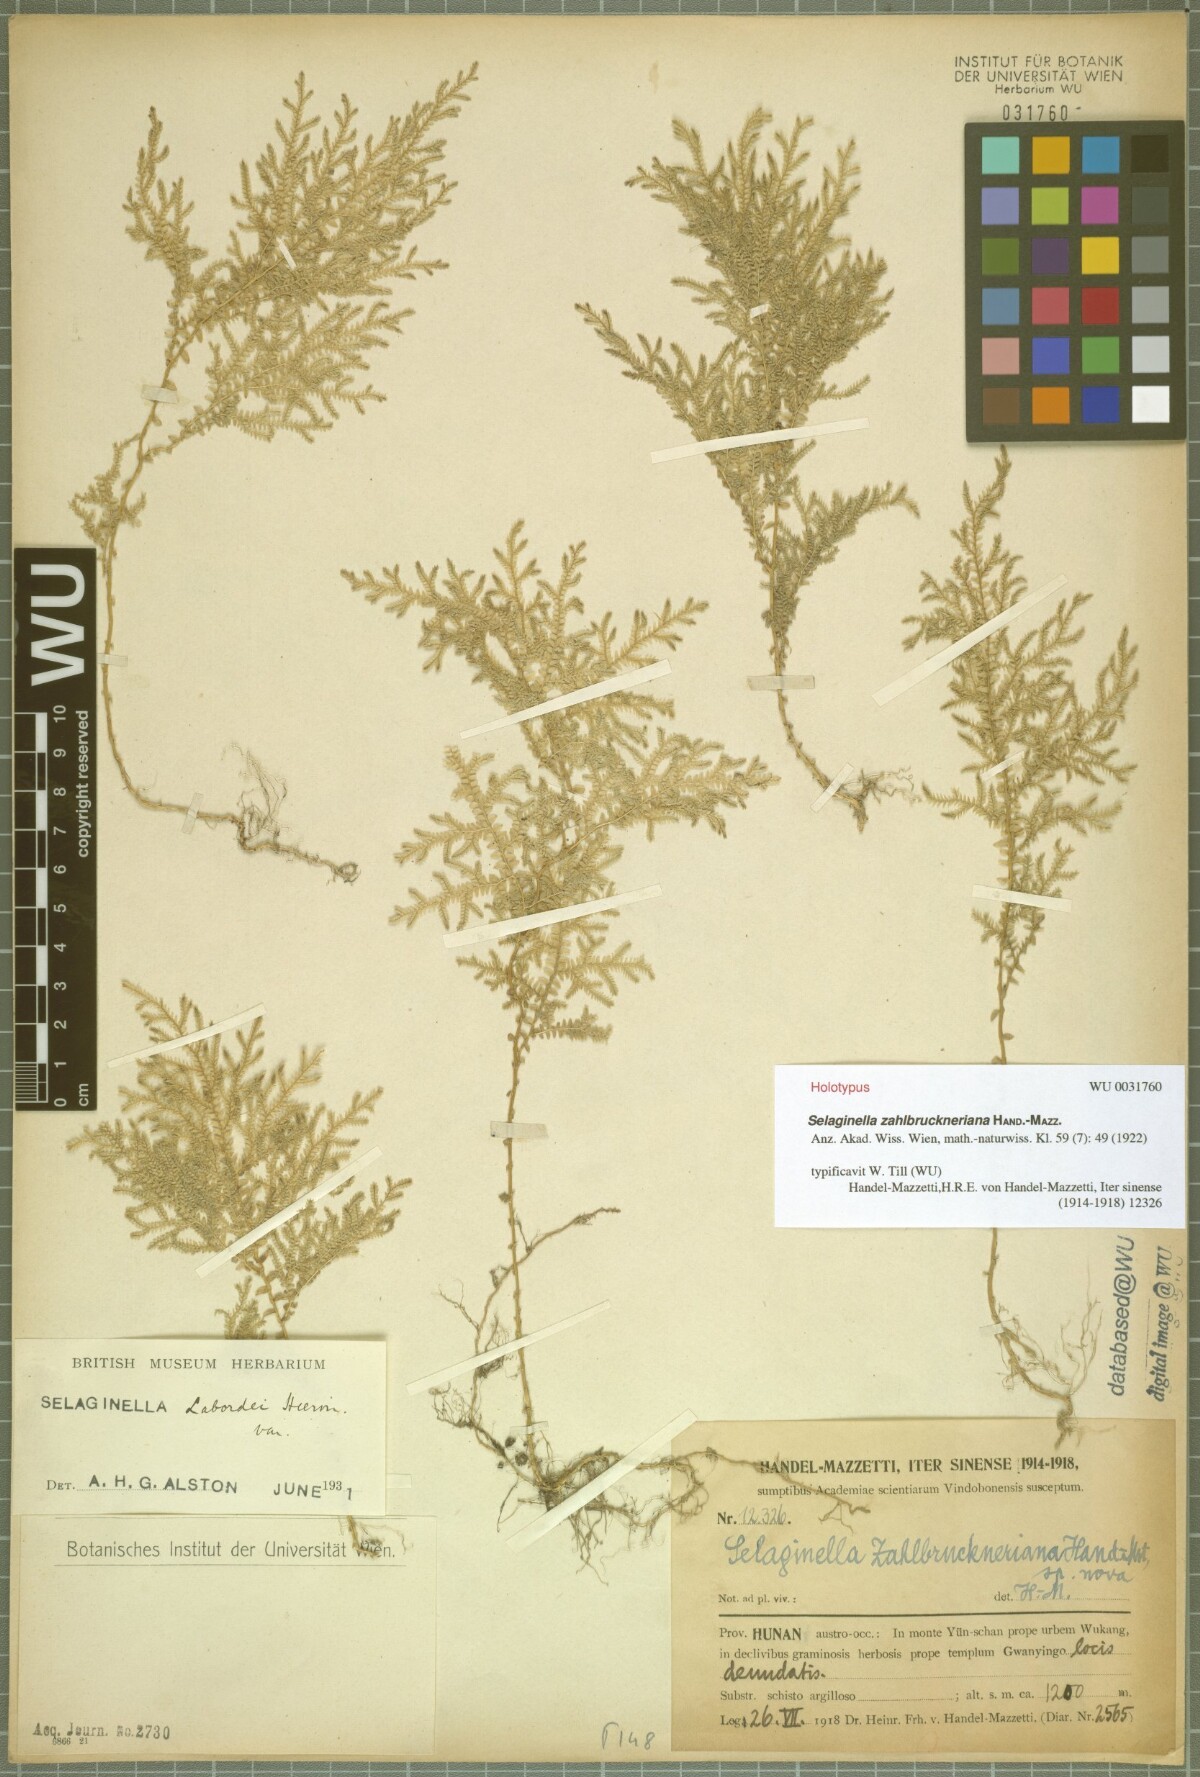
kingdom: Plantae
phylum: Tracheophyta
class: Lycopodiopsida
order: Selaginellales
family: Selaginellaceae
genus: Selaginella
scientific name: Selaginella labordei
